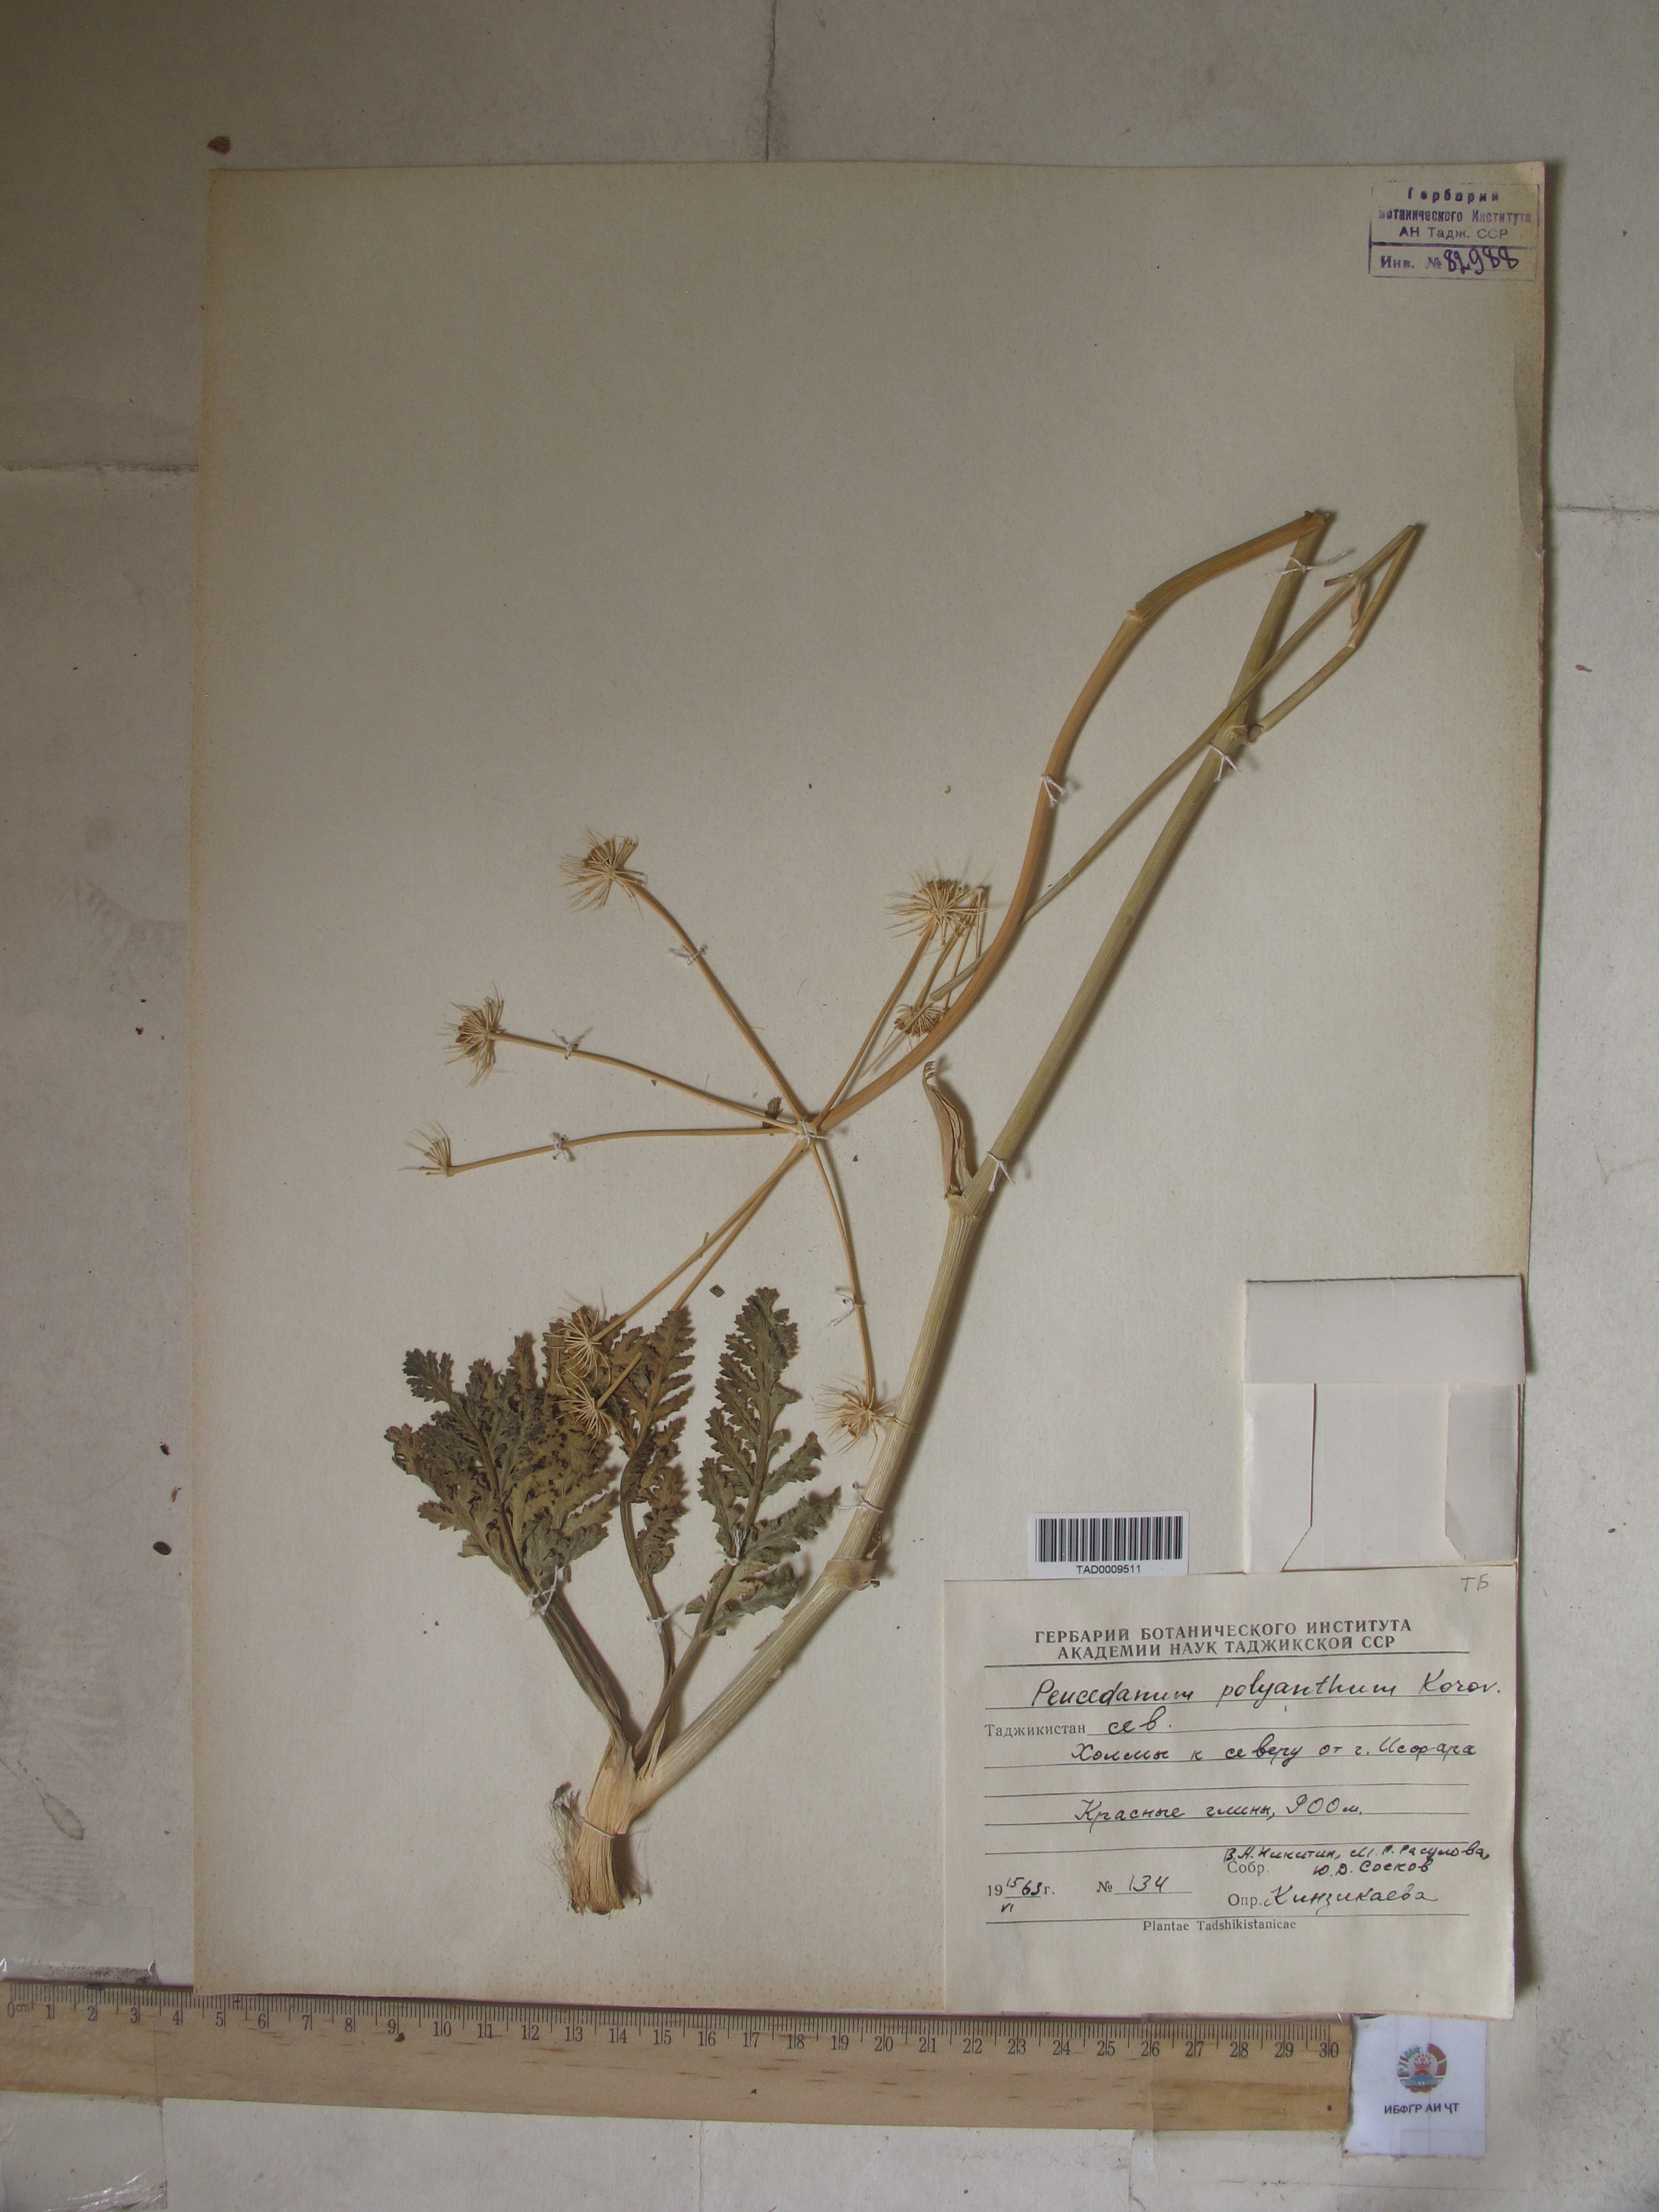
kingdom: Plantae
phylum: Tracheophyta
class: Magnoliopsida
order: Apiales
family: Apiaceae
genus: Fergania
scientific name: Fergania polyantha
